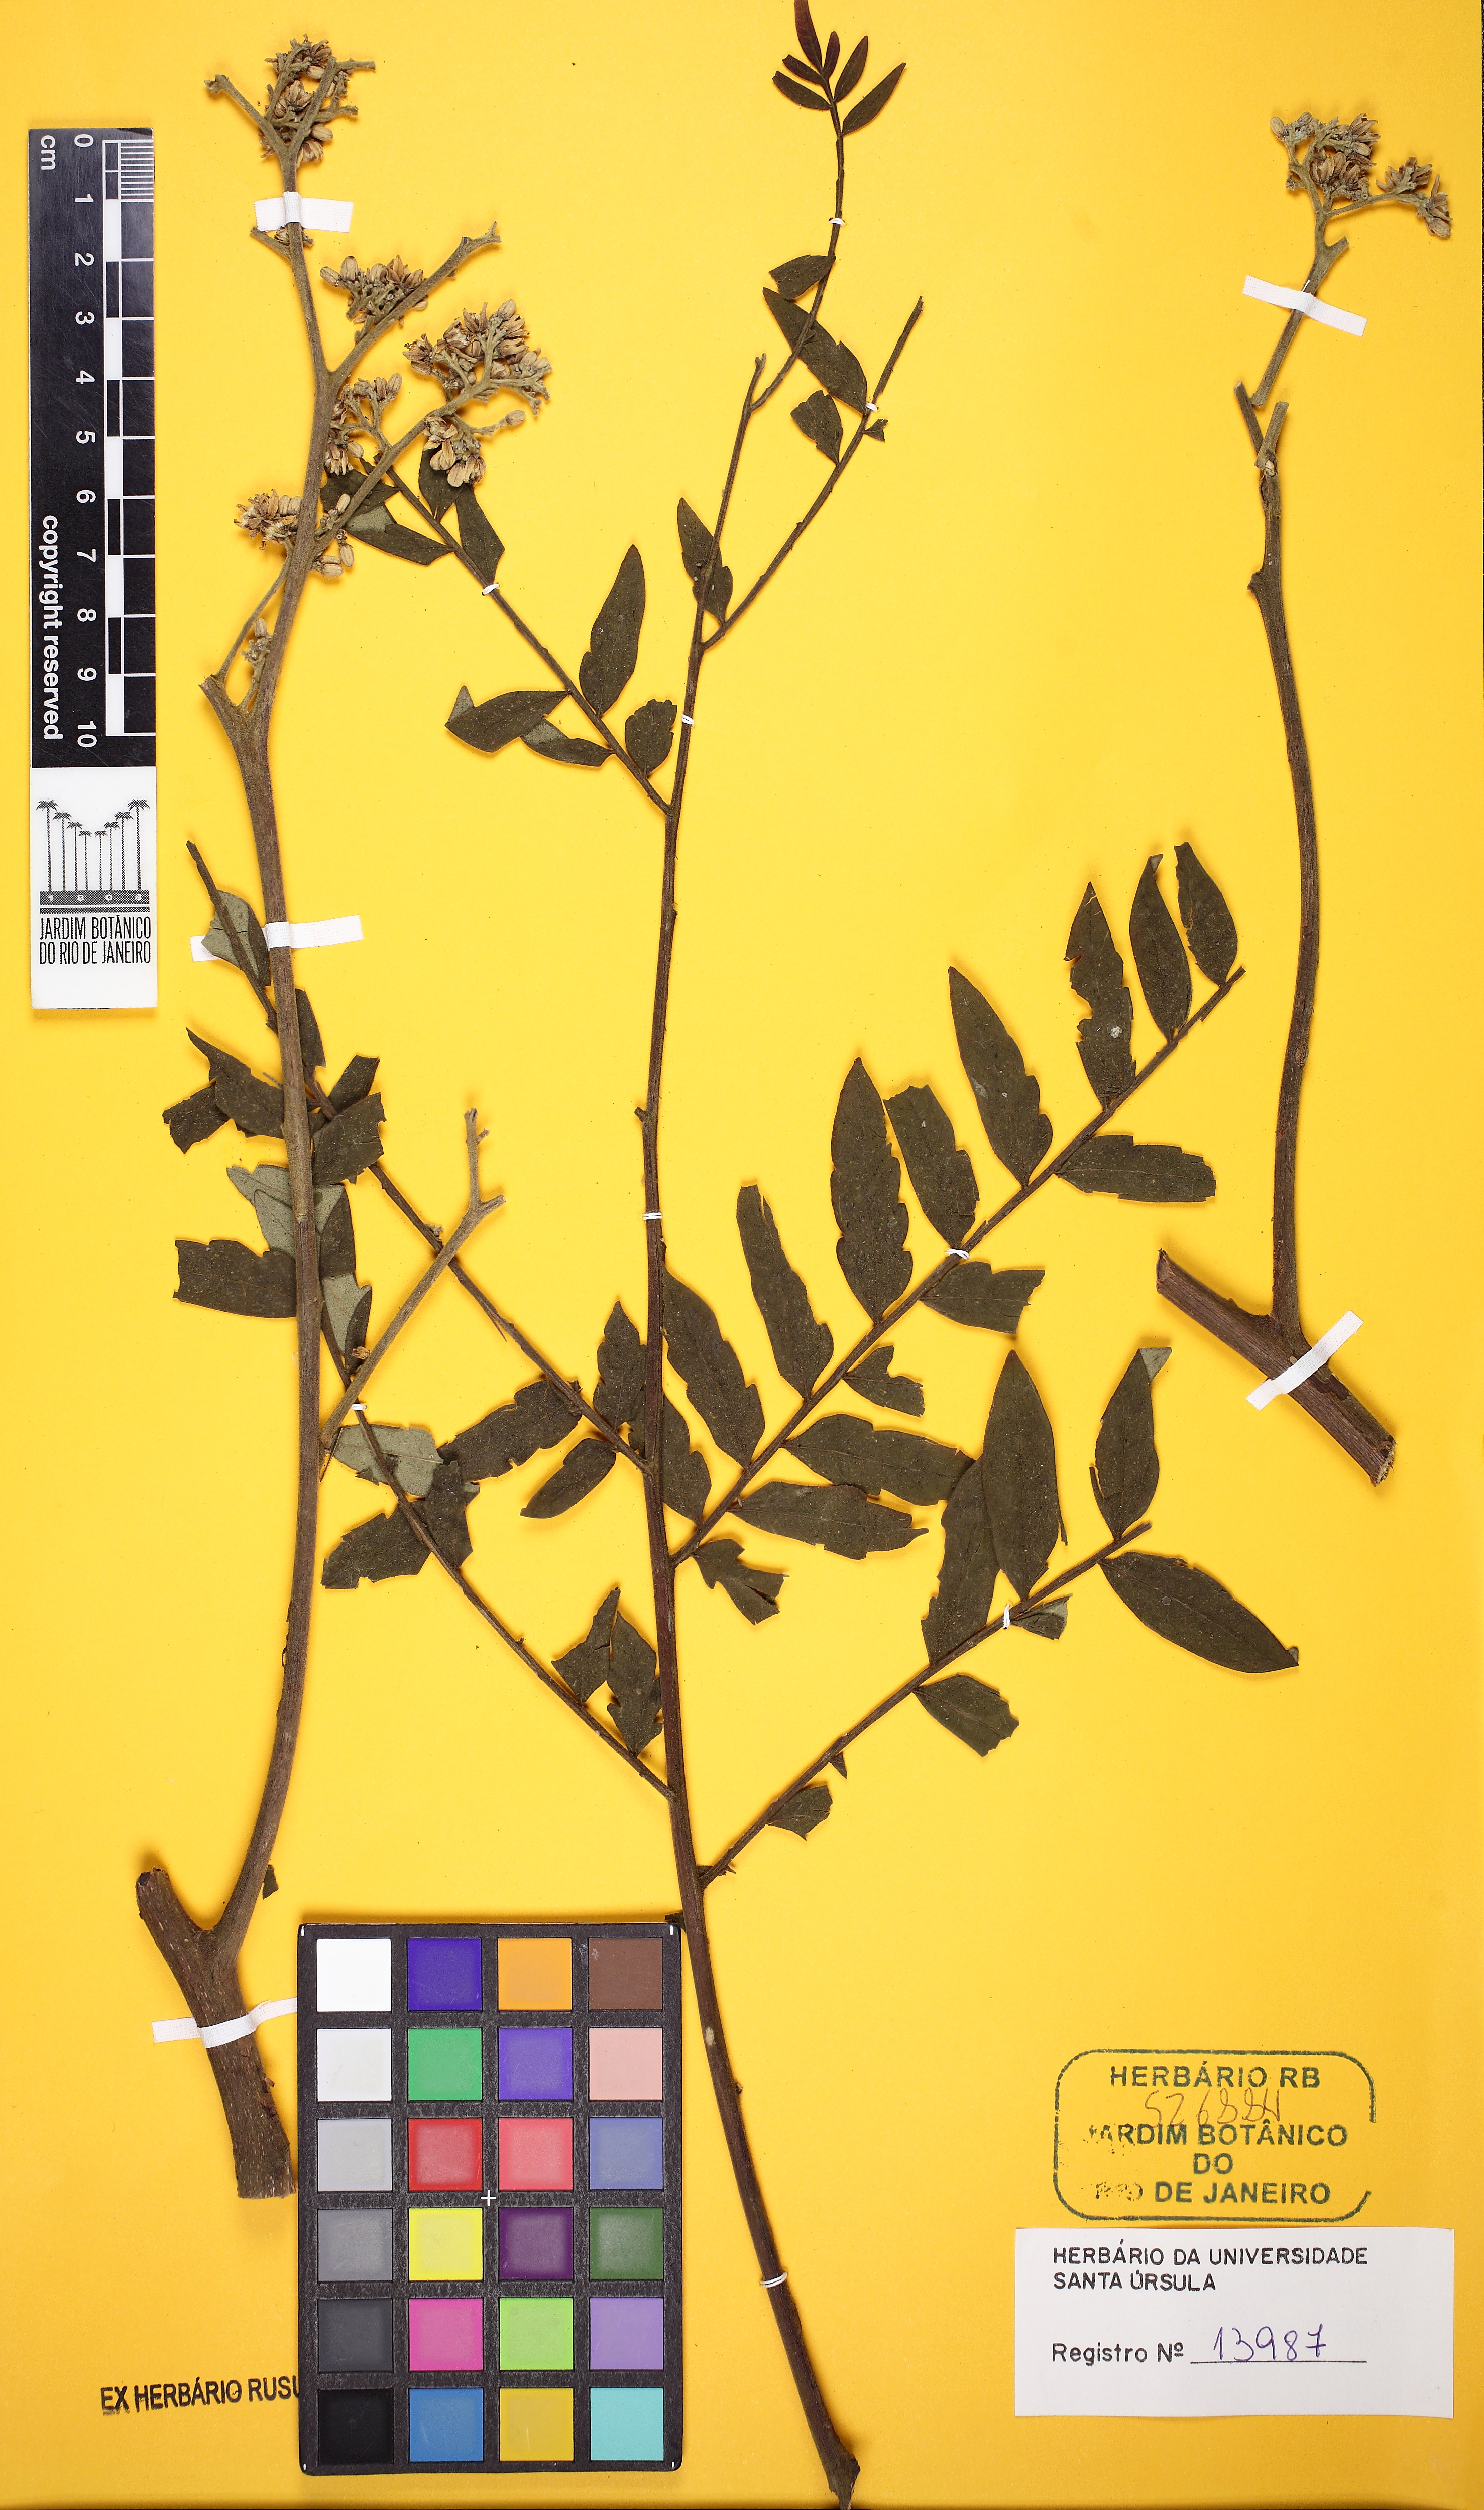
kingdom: Plantae
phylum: Tracheophyta
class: Magnoliopsida
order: Sapindales
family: Rutaceae
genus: Dictyoloma
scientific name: Dictyoloma vandellianum
